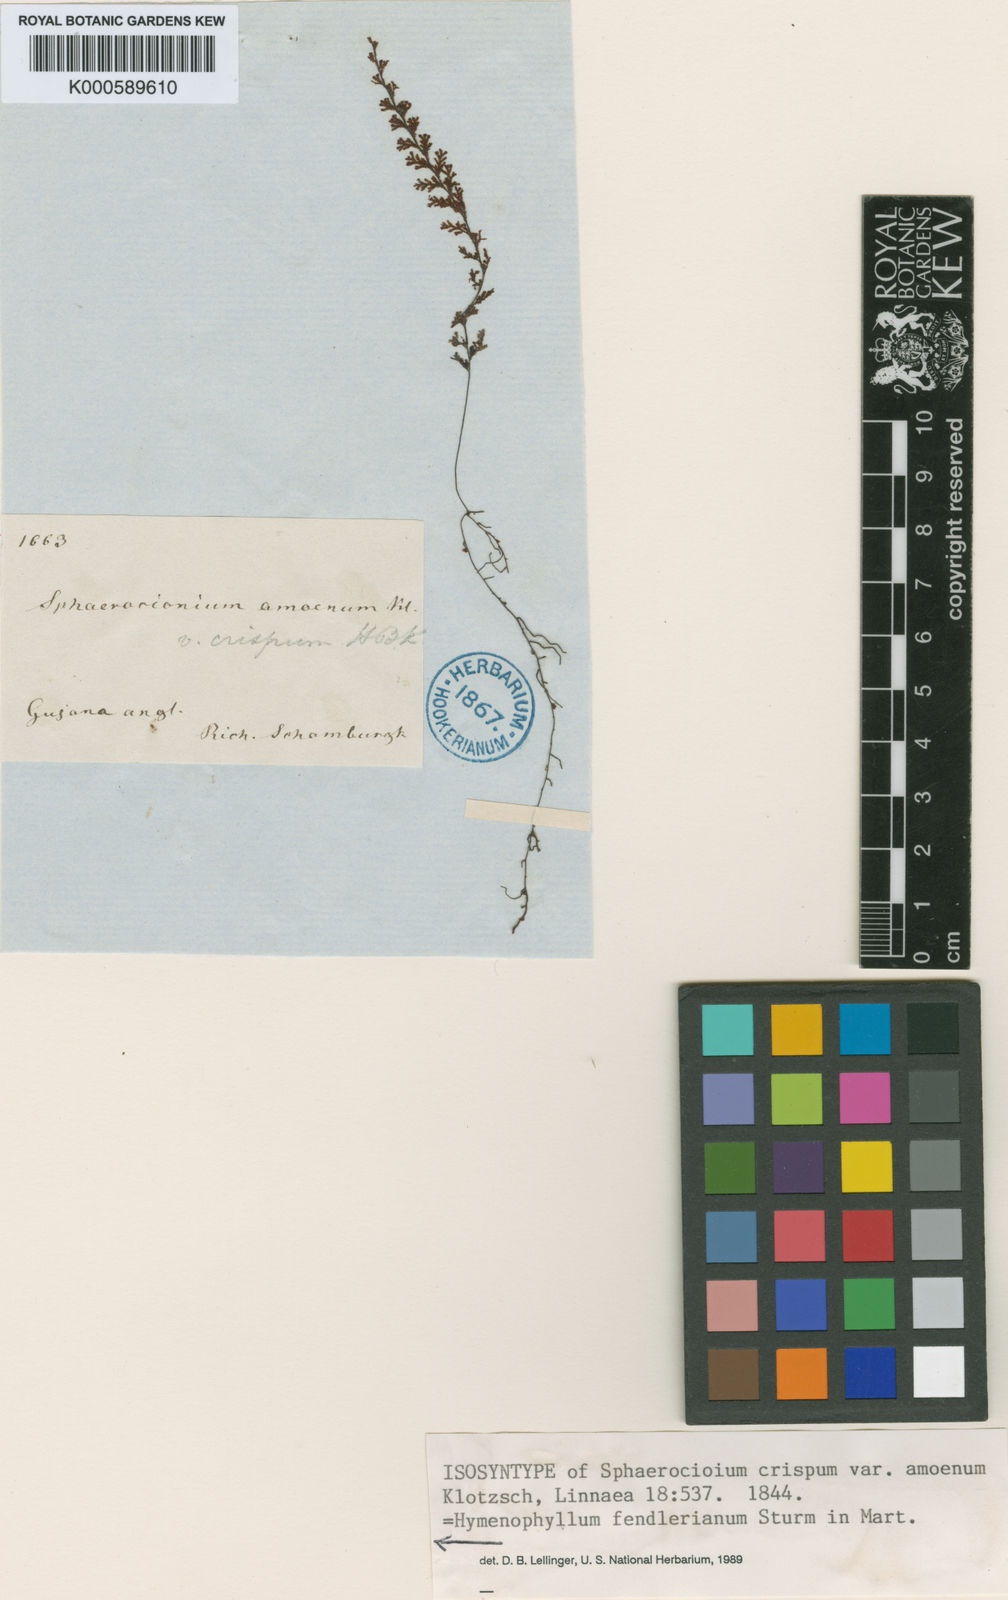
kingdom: Plantae
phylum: Tracheophyta
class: Polypodiopsida
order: Hymenophyllales
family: Hymenophyllaceae
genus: Hymenophyllum
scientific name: Hymenophyllum crispum
